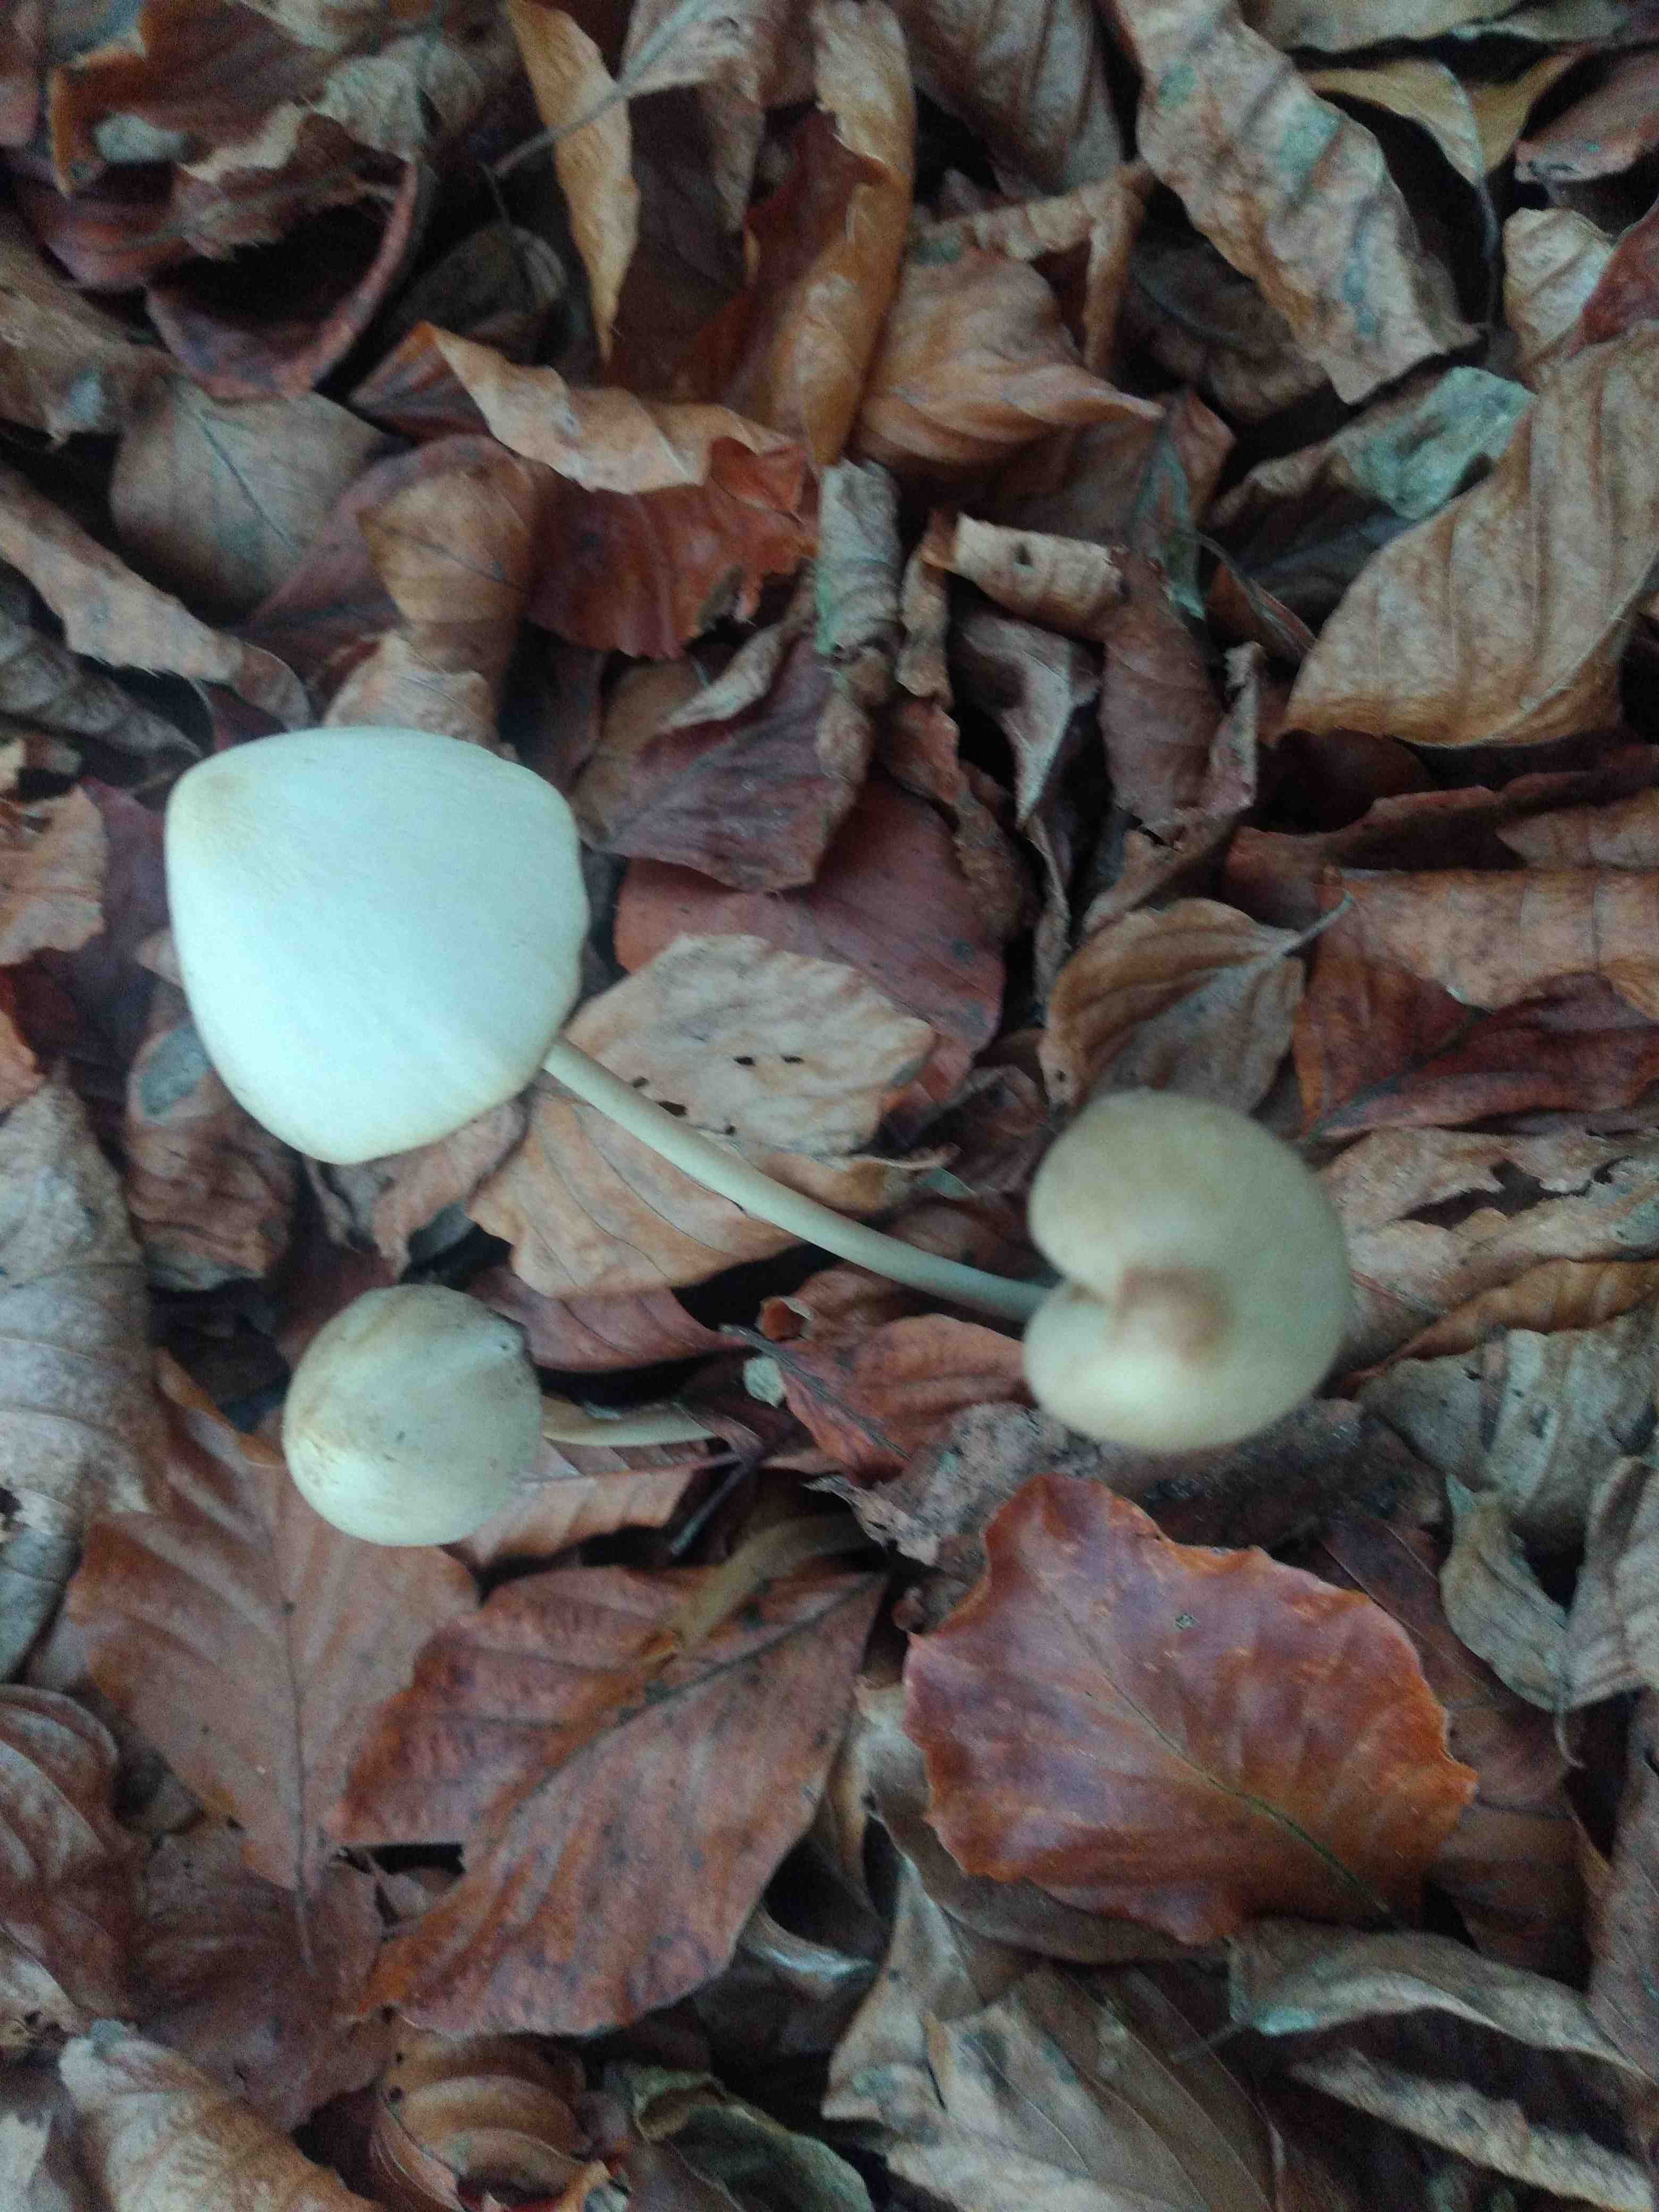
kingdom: Fungi
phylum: Basidiomycota
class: Agaricomycetes
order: Agaricales
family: Psathyrellaceae
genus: Psathyrella
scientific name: Psathyrella
